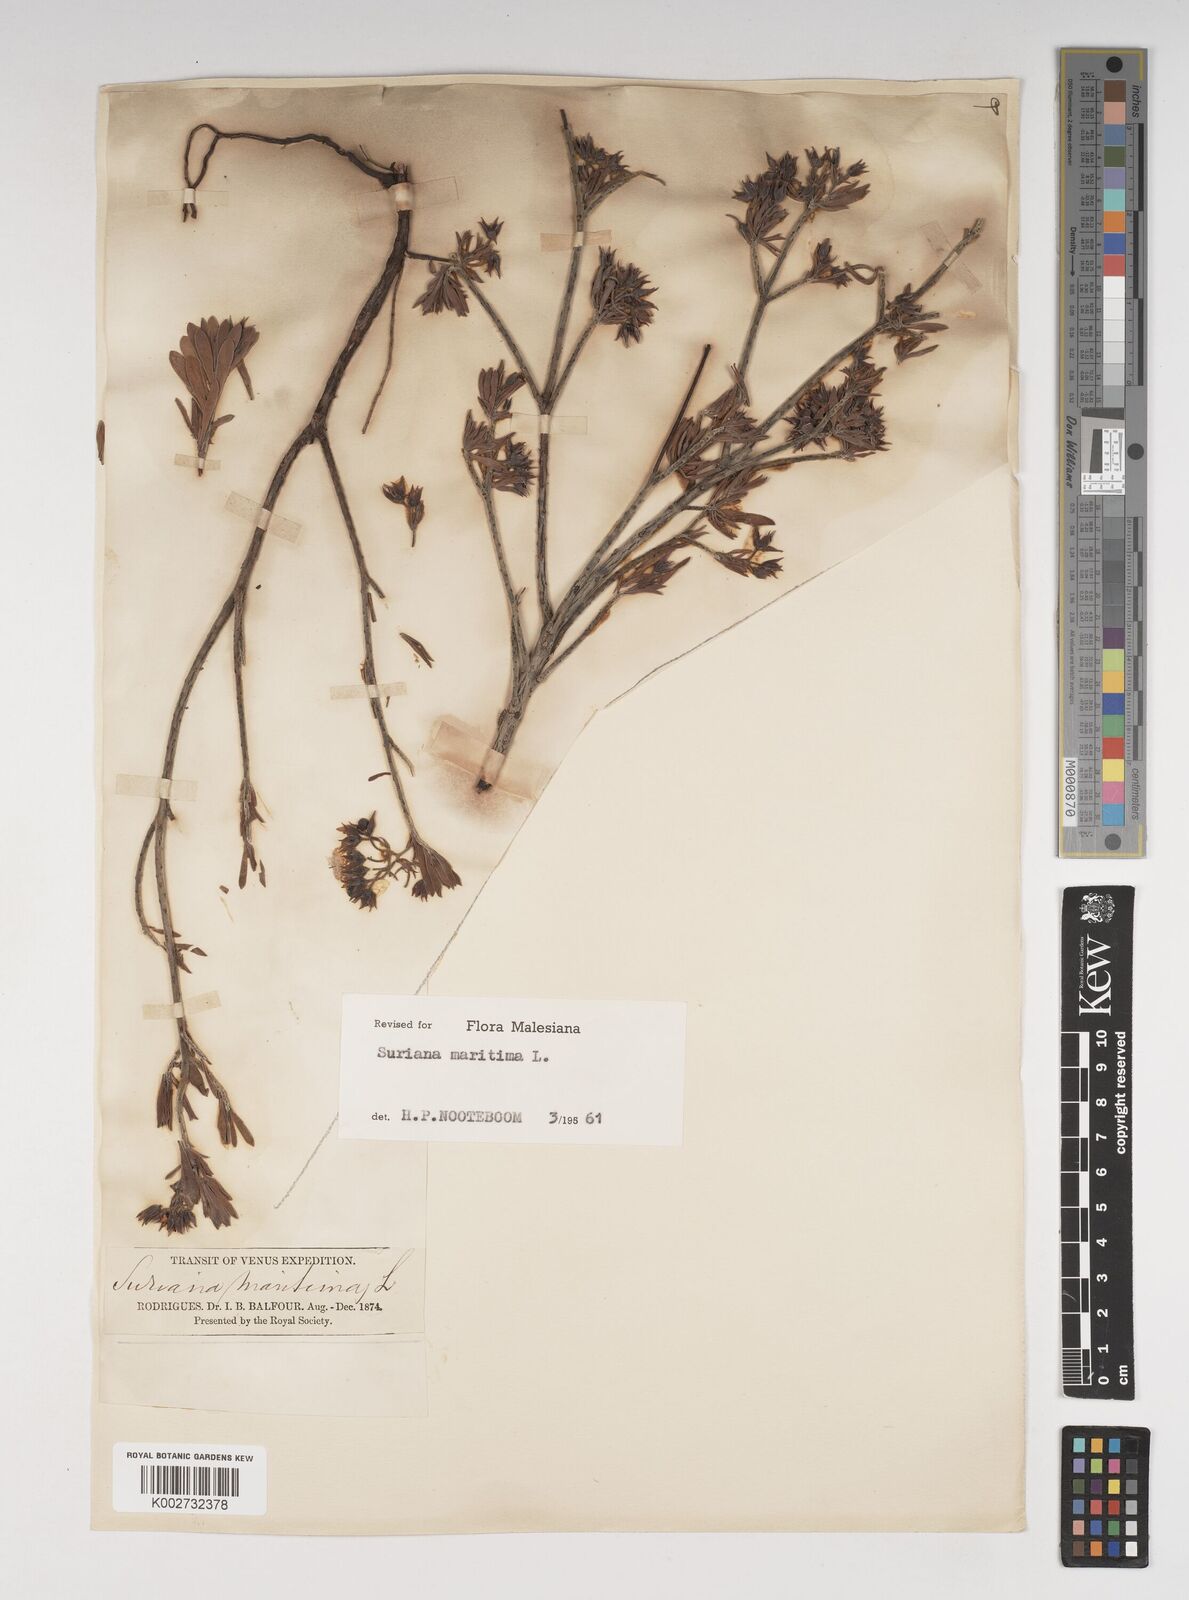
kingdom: Plantae
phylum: Tracheophyta
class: Magnoliopsida
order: Fabales
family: Surianaceae
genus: Suriana
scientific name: Suriana maritima
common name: Bay-cedar
